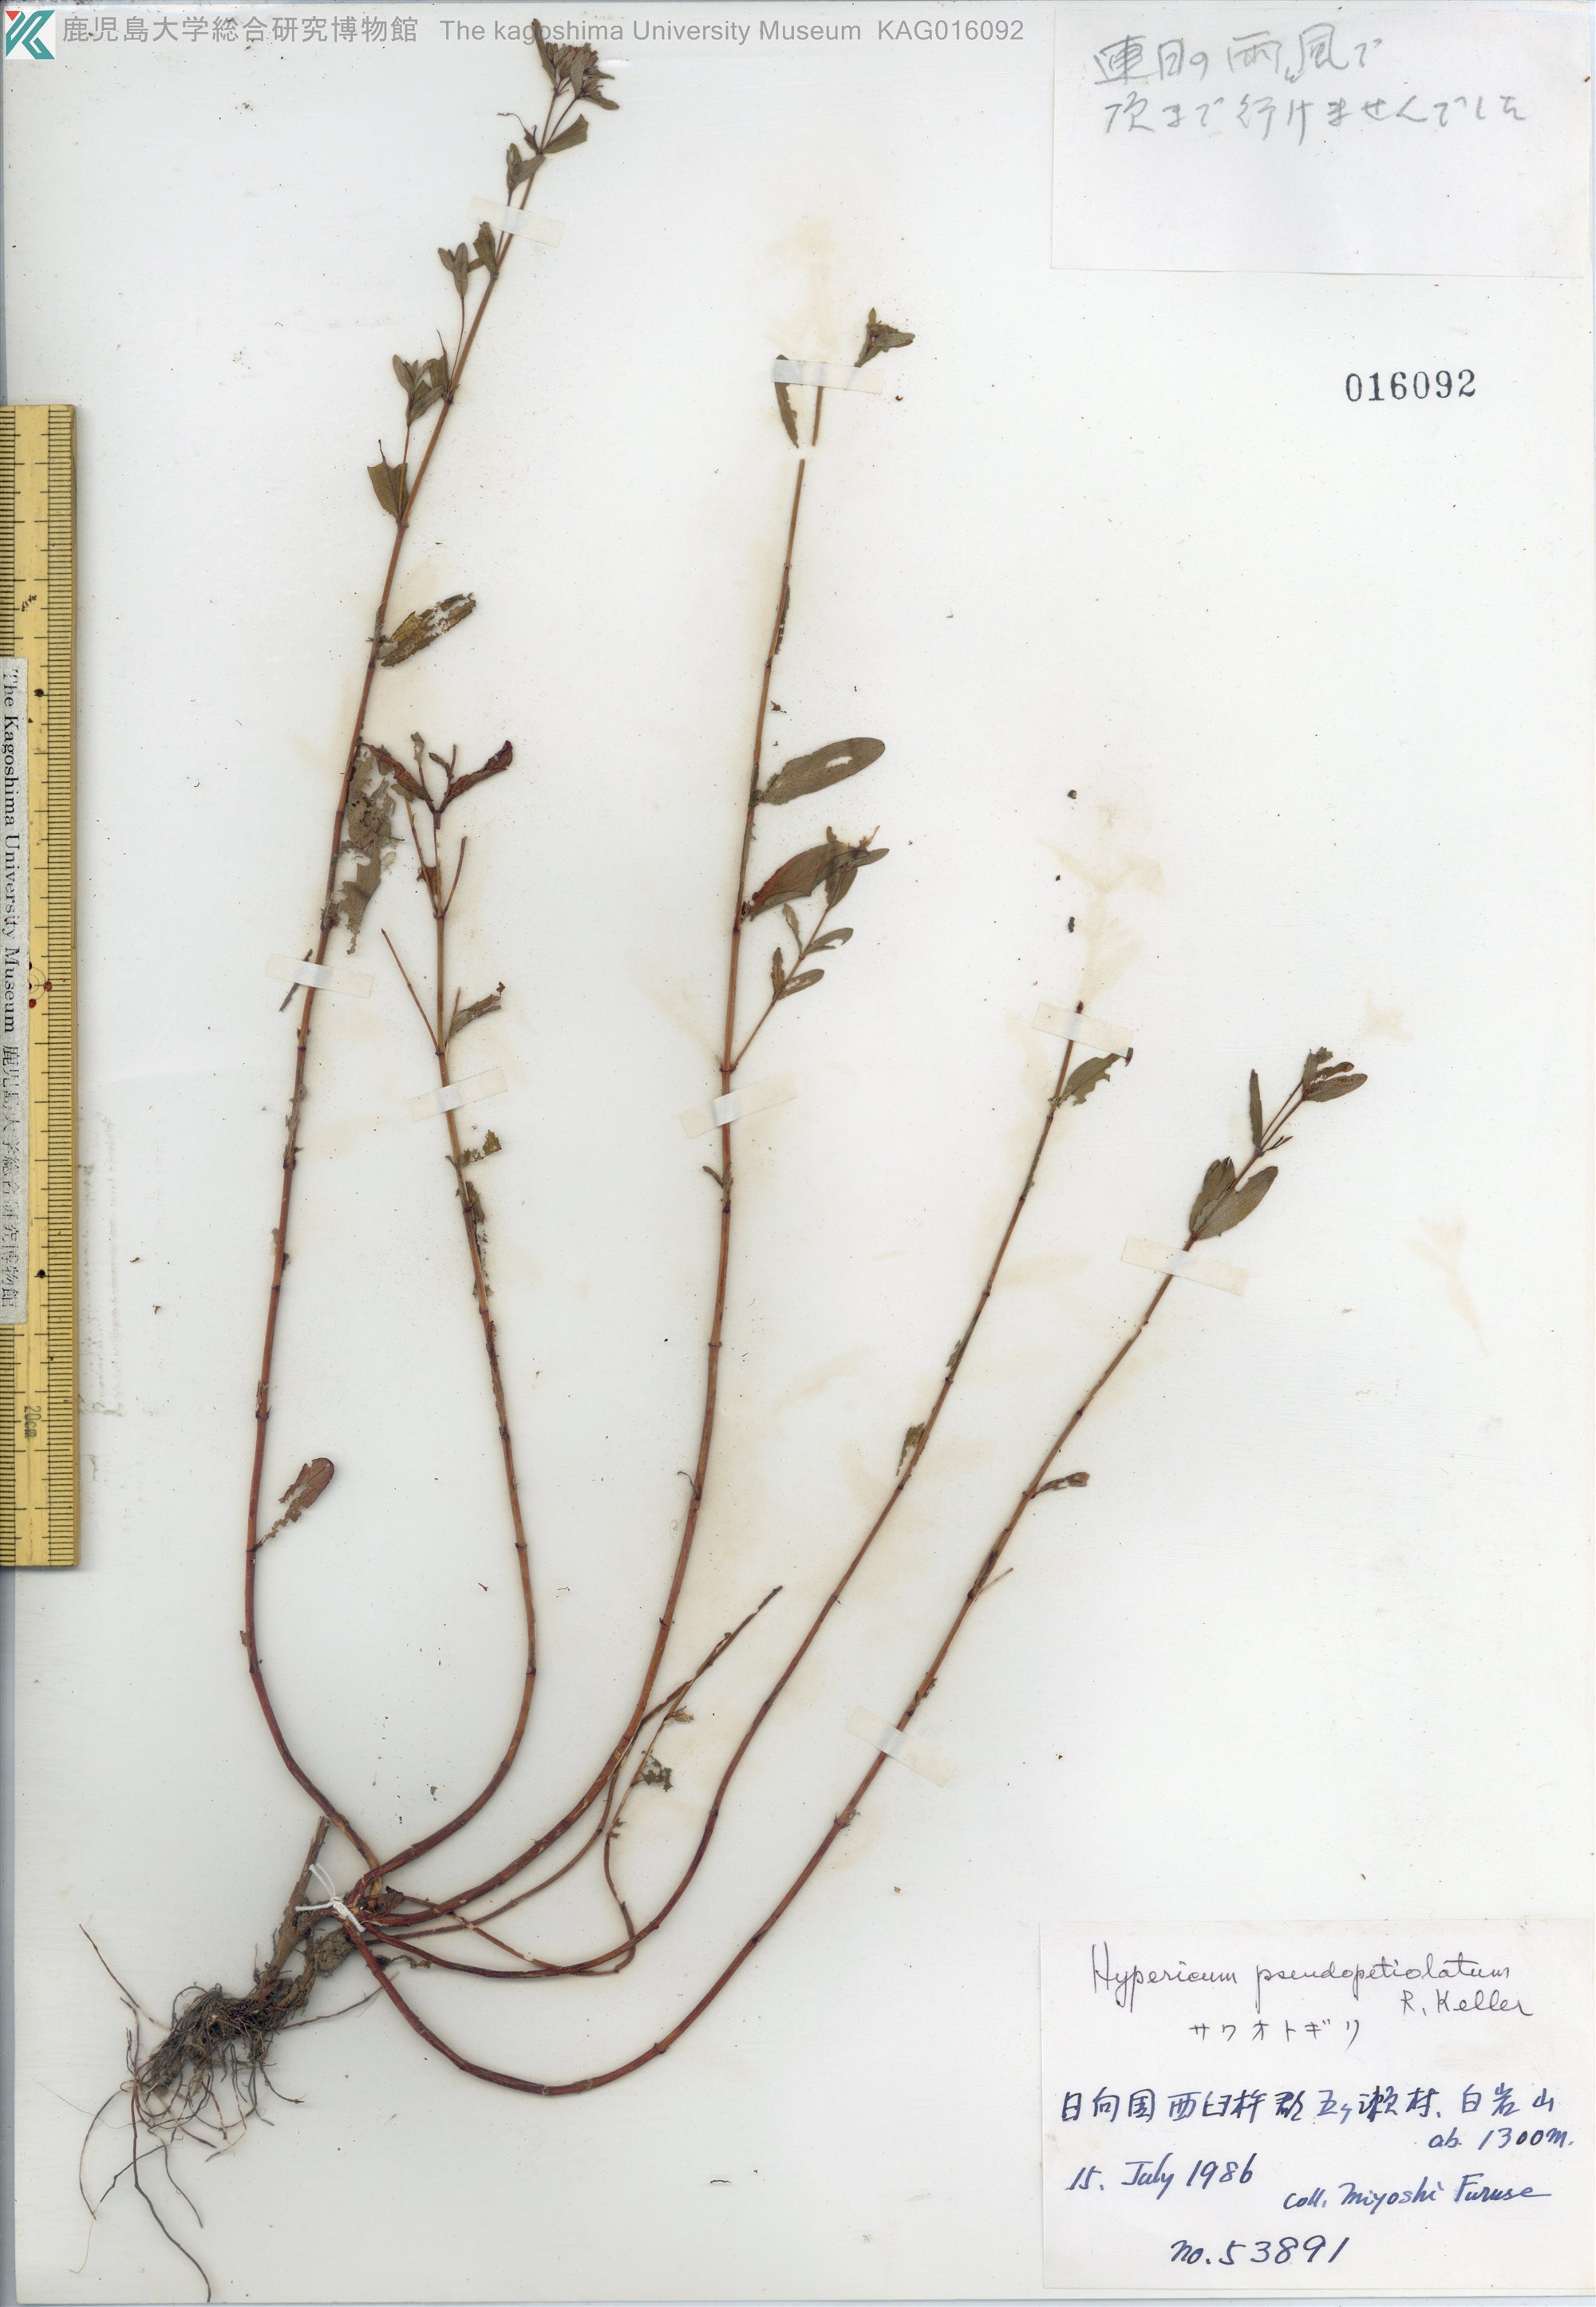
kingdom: Plantae
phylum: Tracheophyta
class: Magnoliopsida
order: Malpighiales
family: Hypericaceae
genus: Hypericum
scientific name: Hypericum pseudopetiolatum
